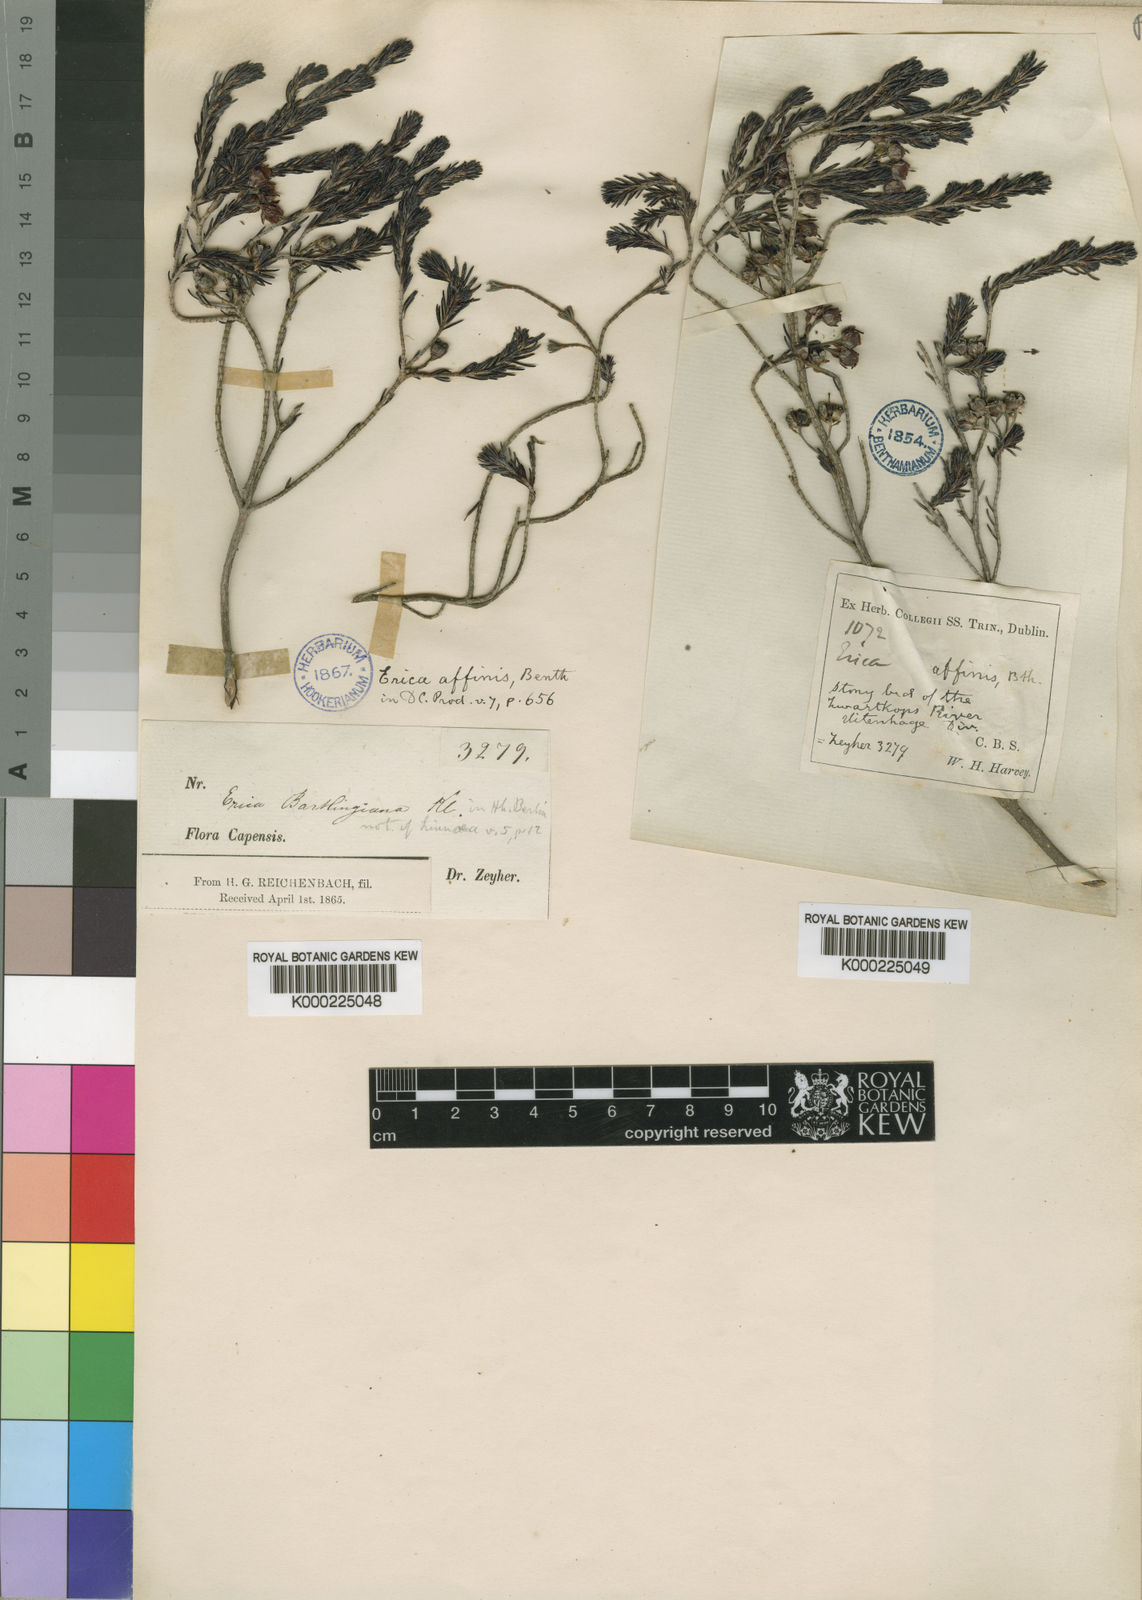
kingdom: Plantae
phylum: Tracheophyta
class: Magnoliopsida
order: Ericales
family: Ericaceae
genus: Erica
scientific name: Erica affinis
